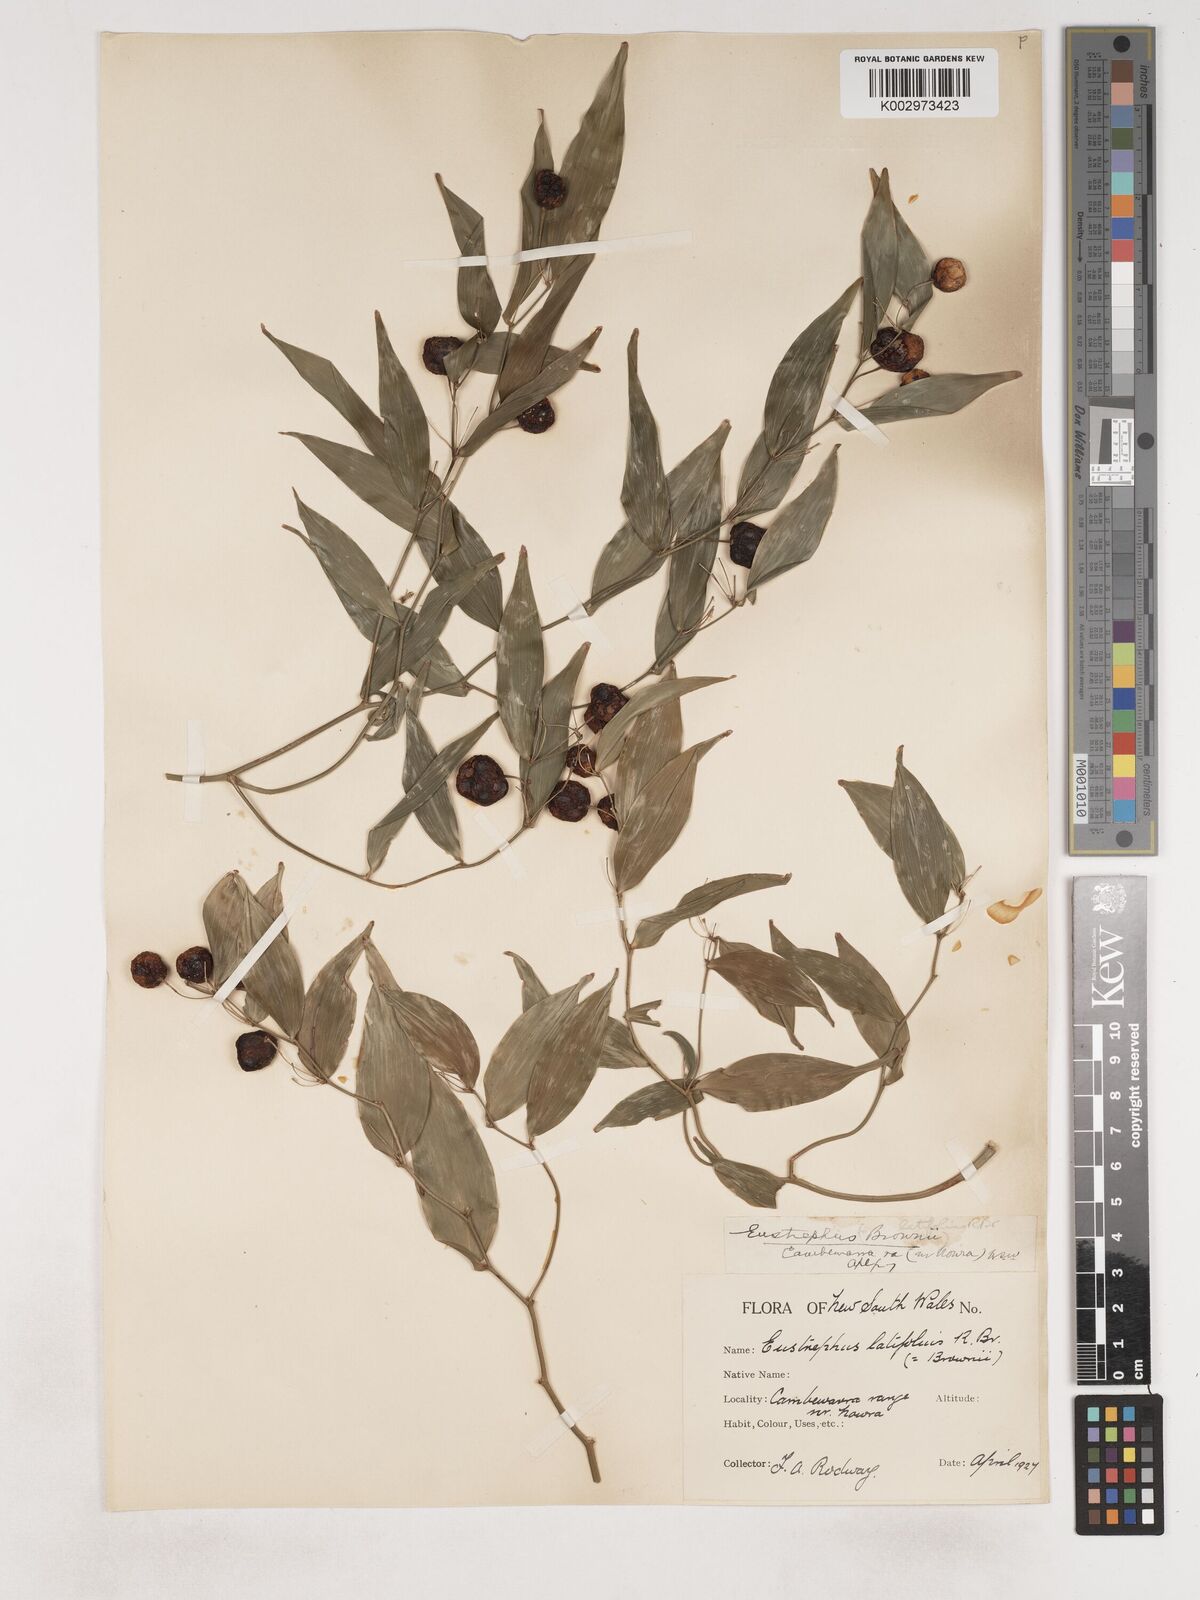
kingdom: Plantae
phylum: Tracheophyta
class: Liliopsida
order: Asparagales
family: Asparagaceae
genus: Eustrephus
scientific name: Eustrephus latifolius
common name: Orangevine
